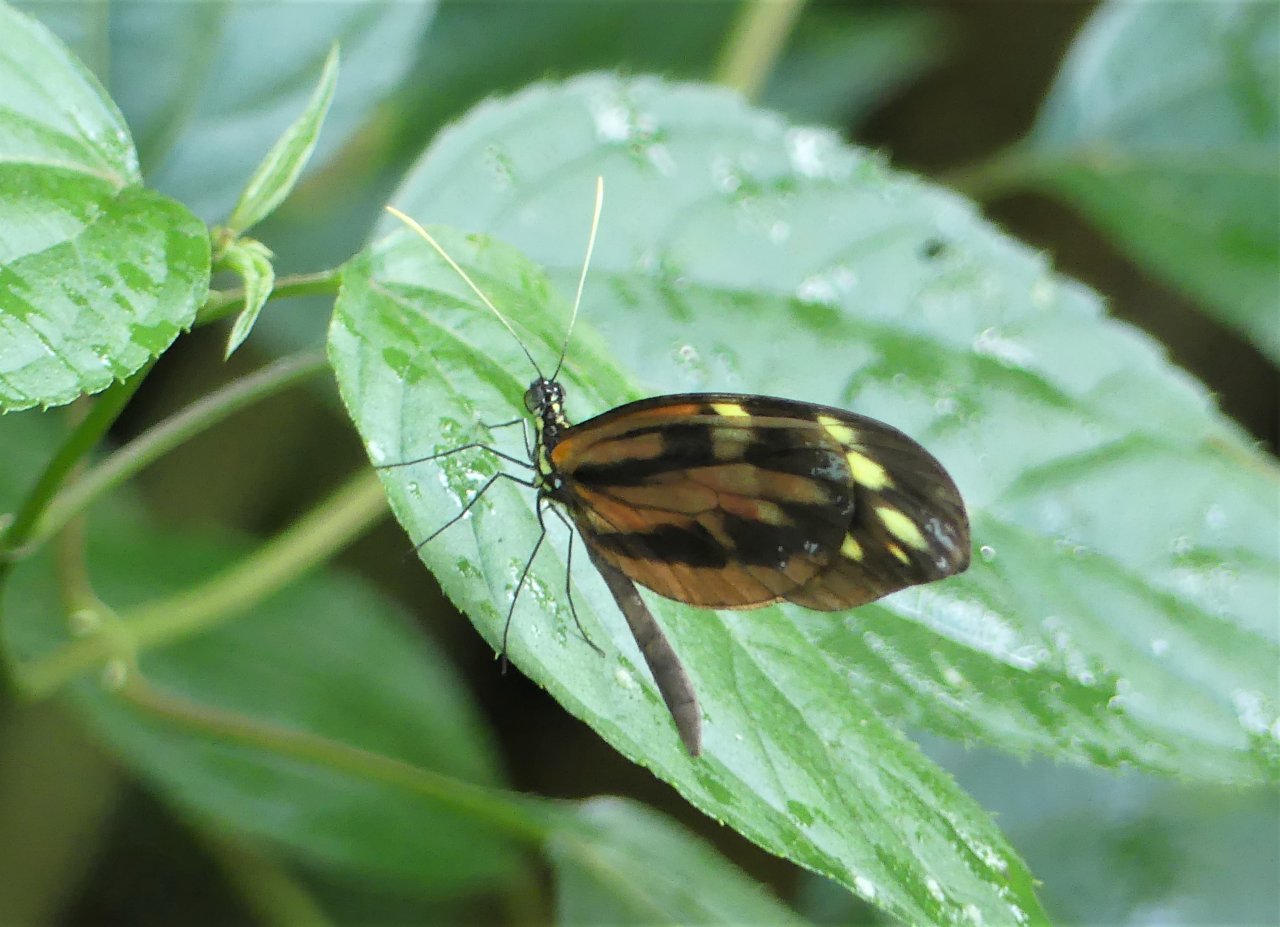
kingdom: Animalia
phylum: Arthropoda
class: Insecta
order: Lepidoptera
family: Pieridae
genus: Dismorphia
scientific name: Dismorphia amphione
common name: Tiger Mimic-White
